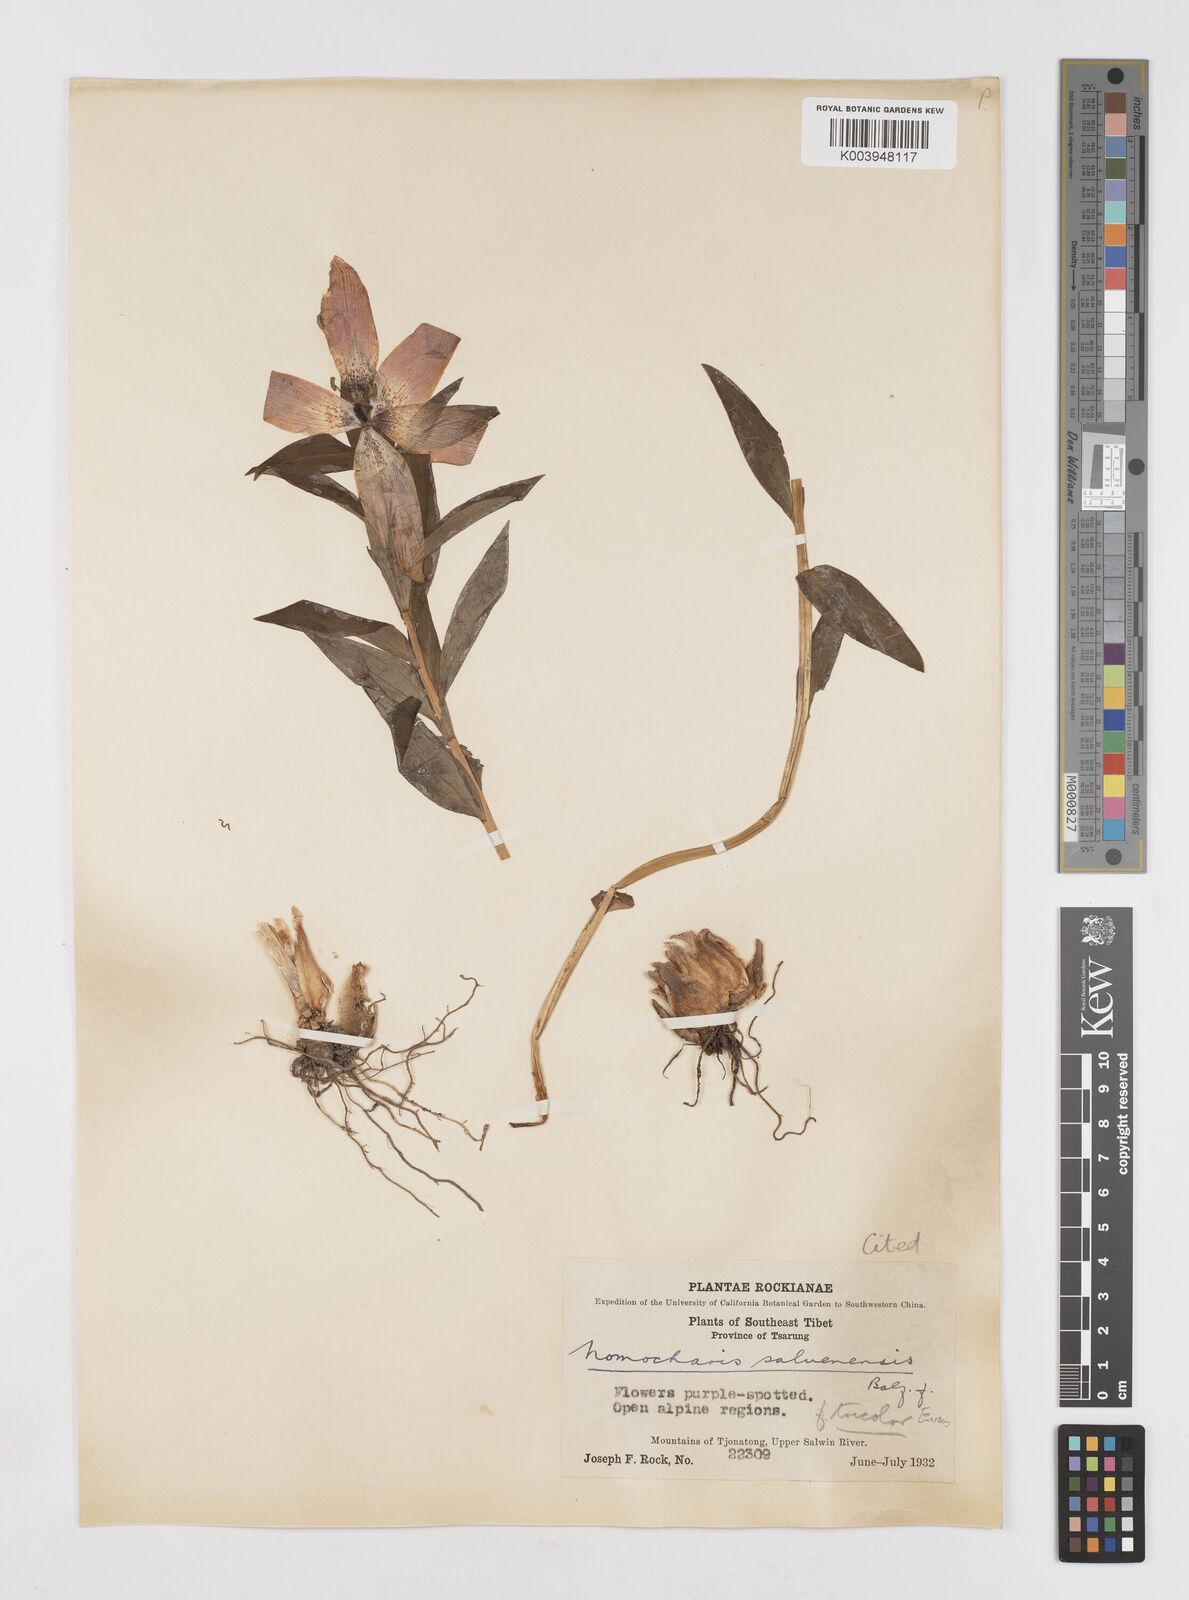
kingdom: Plantae
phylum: Tracheophyta
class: Liliopsida
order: Liliales
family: Liliaceae
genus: Lilium
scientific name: Lilium saluenense
